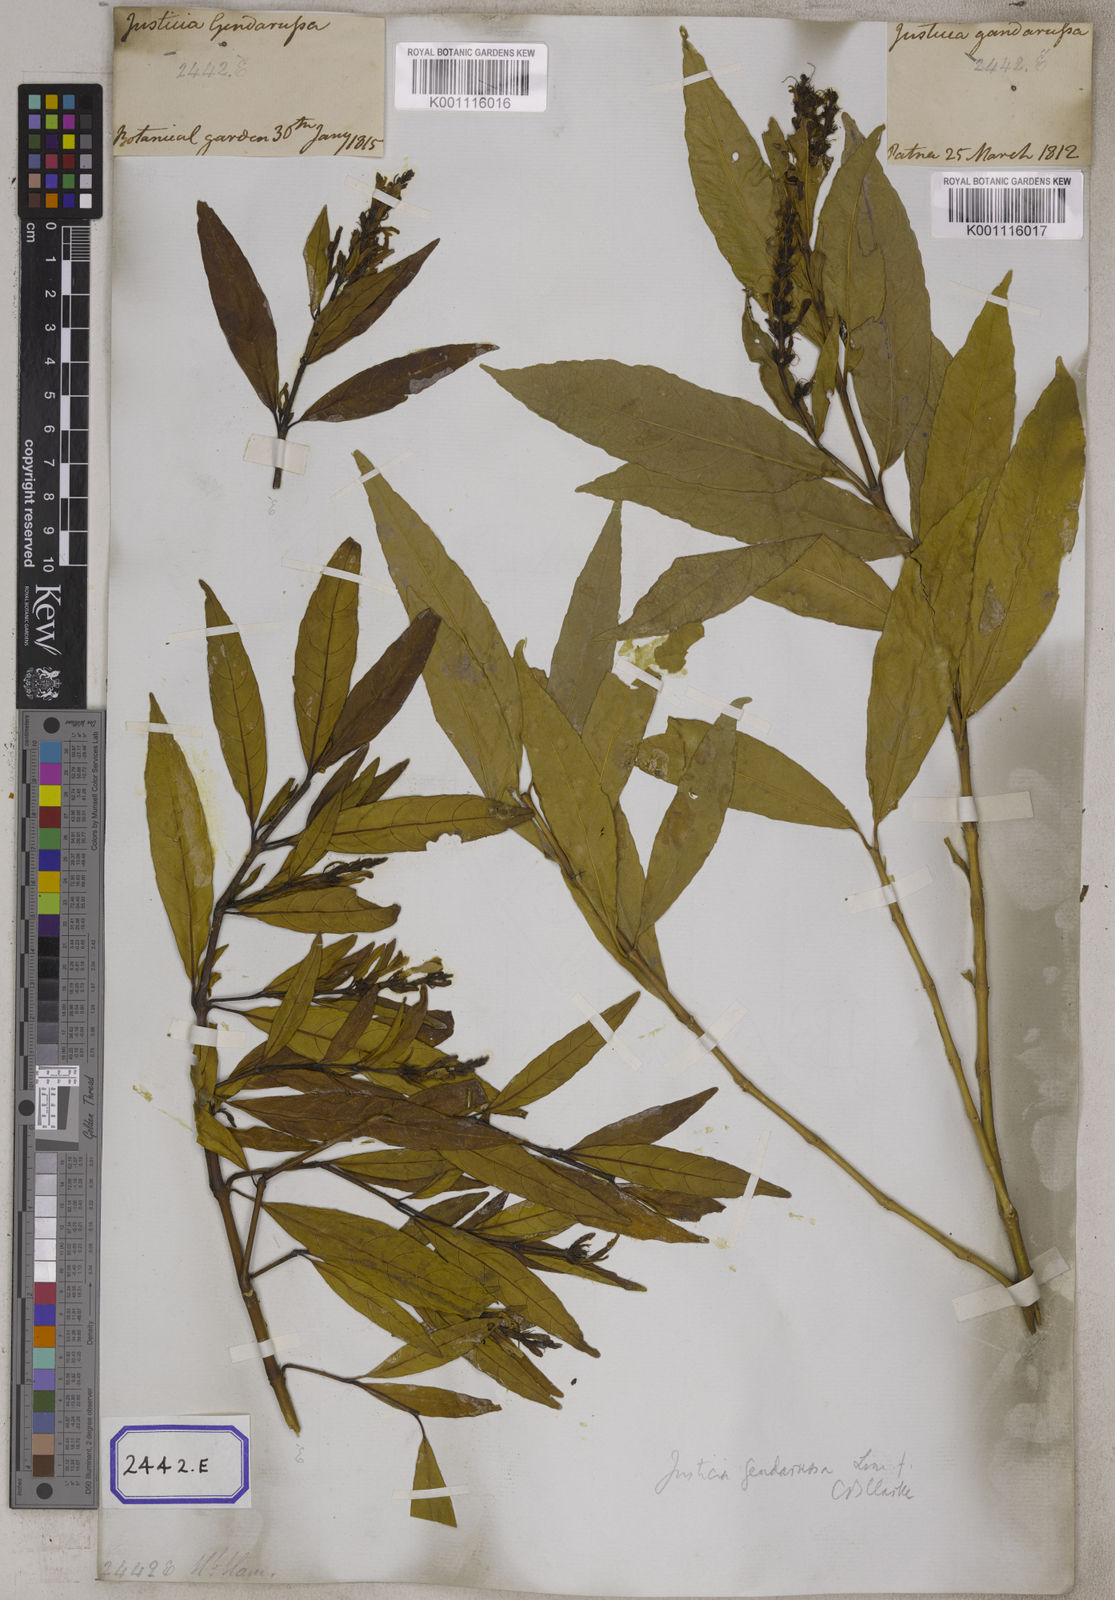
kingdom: Plantae
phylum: Tracheophyta
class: Magnoliopsida
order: Lamiales
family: Acanthaceae
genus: Justicia
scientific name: Justicia
